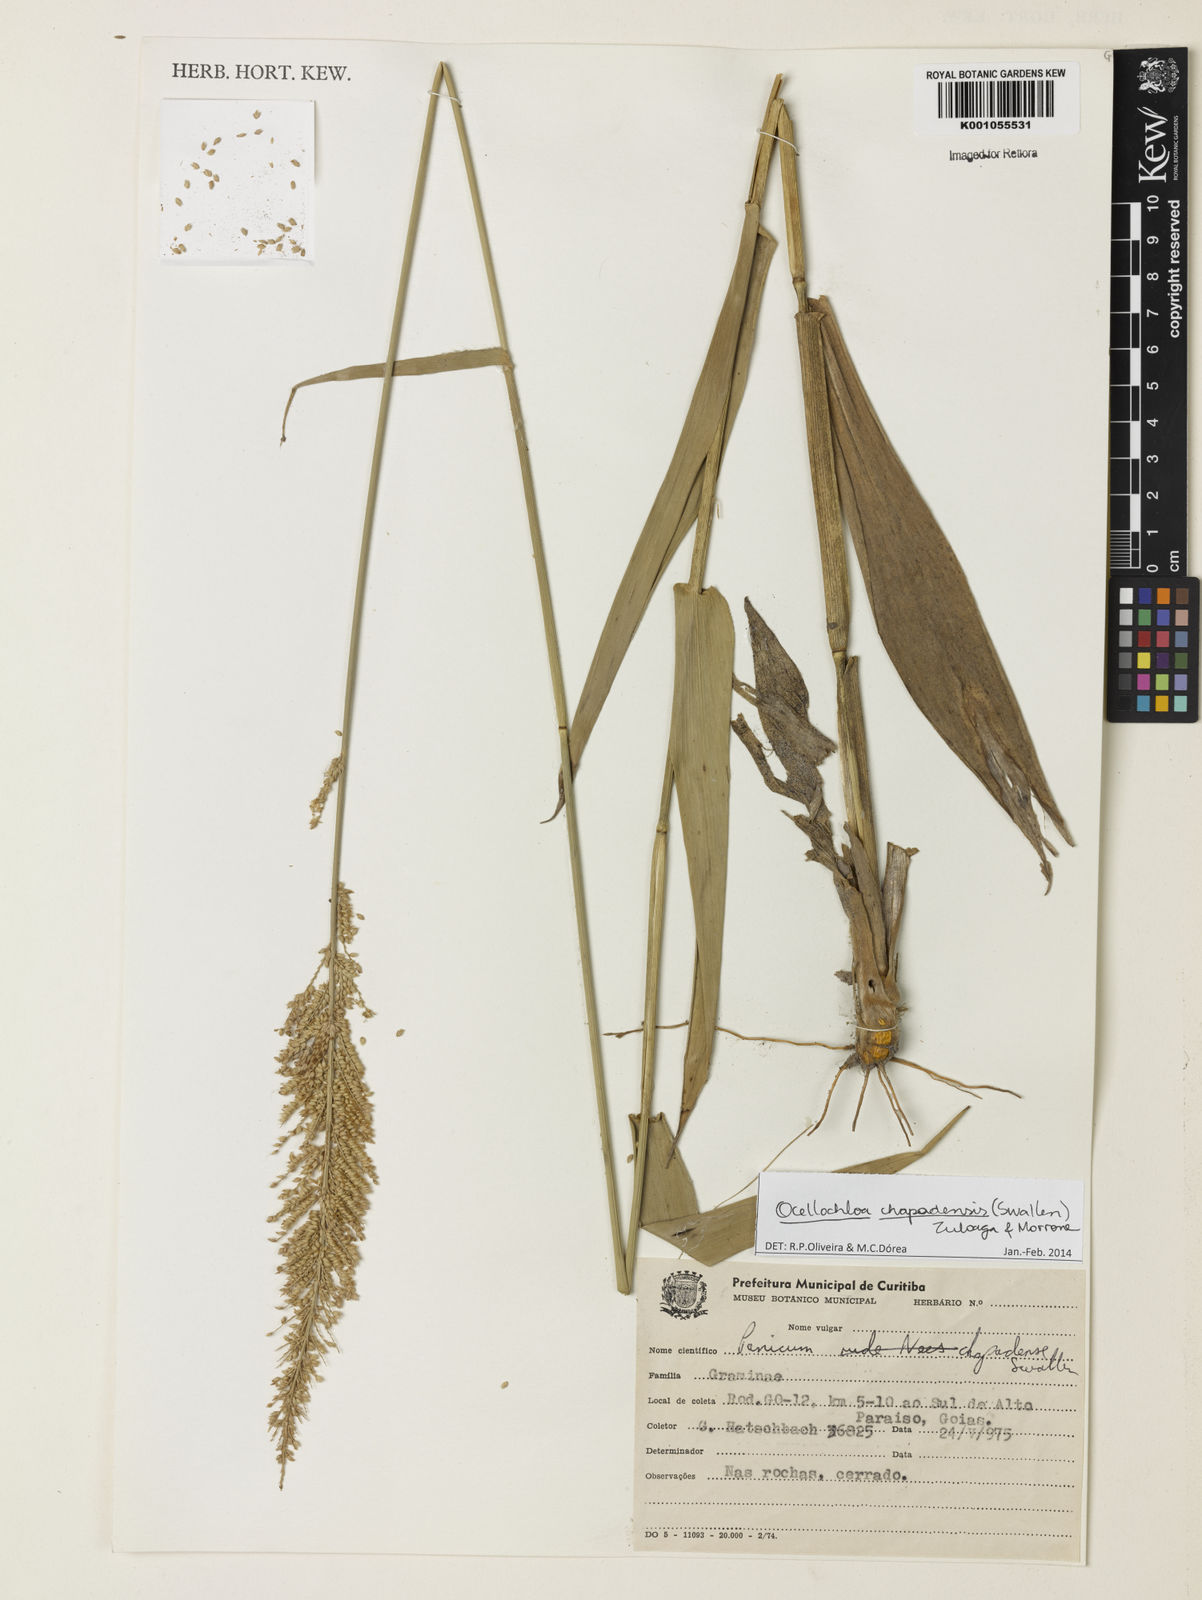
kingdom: Plantae
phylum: Tracheophyta
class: Liliopsida
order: Poales
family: Poaceae
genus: Ocellochloa
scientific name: Ocellochloa chapadensis
